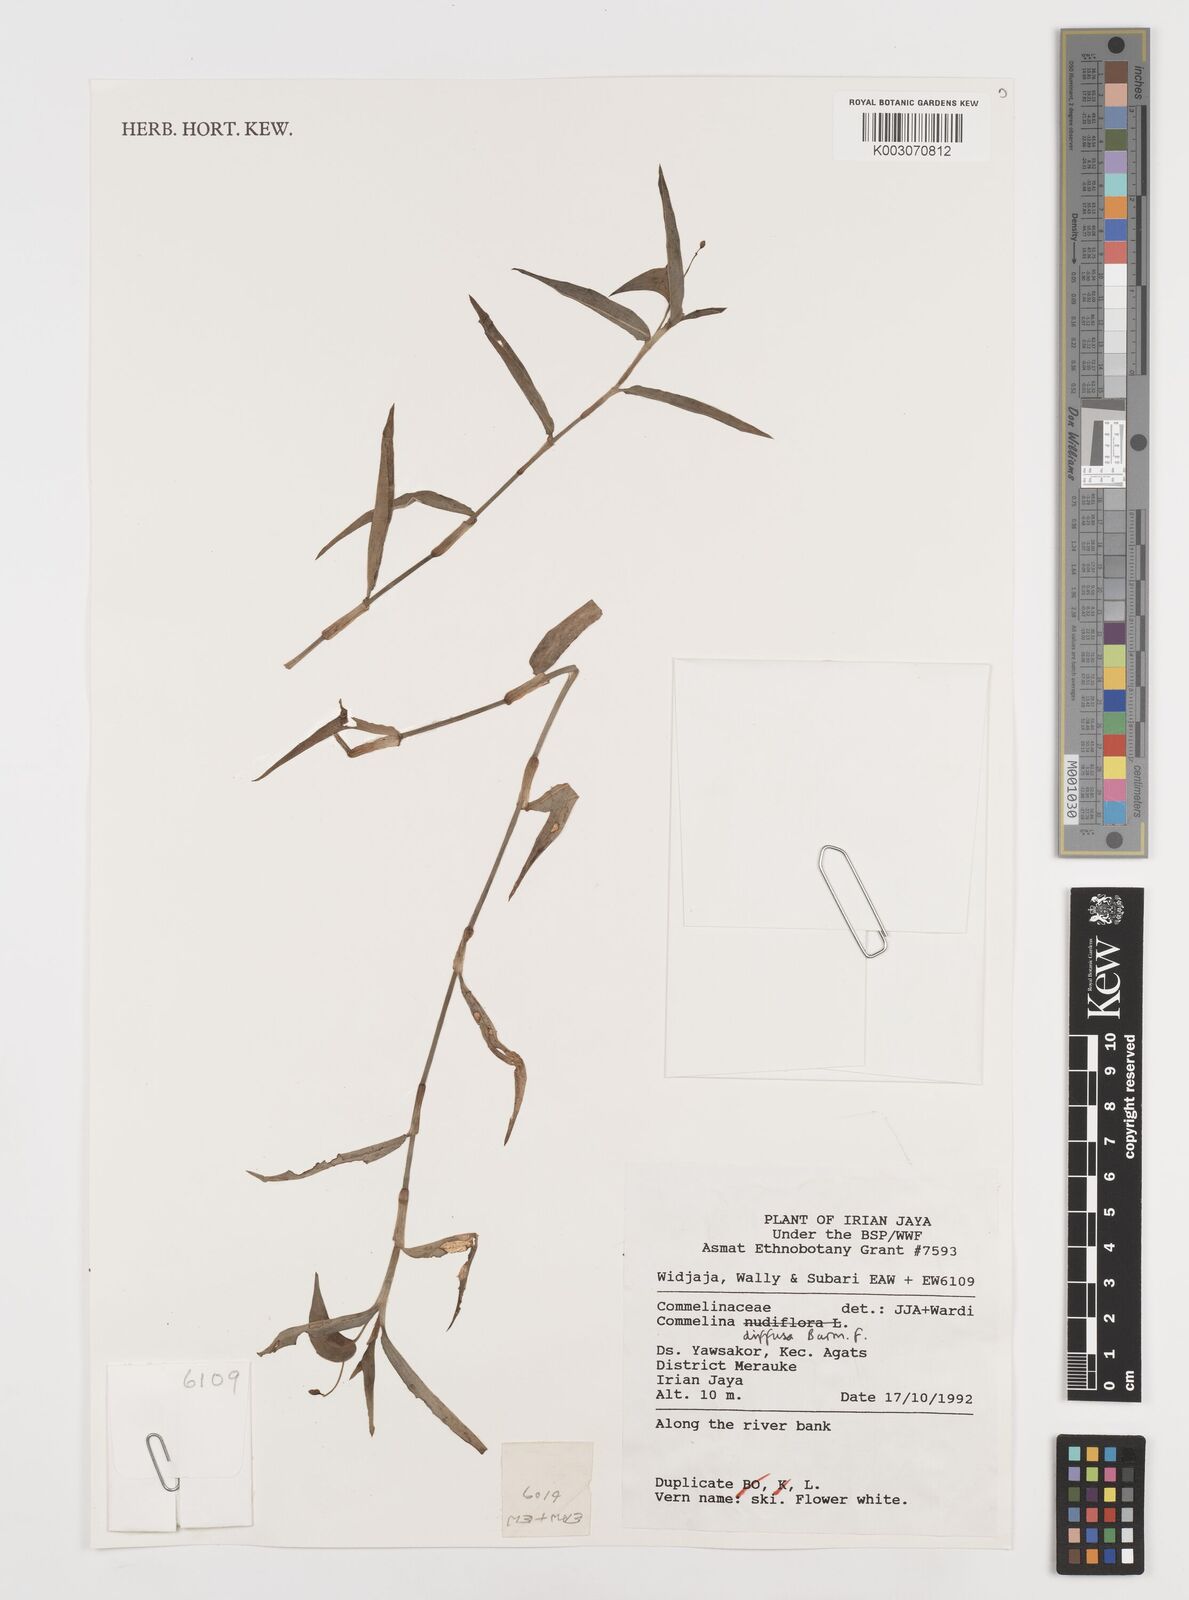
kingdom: Plantae
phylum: Tracheophyta
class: Liliopsida
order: Commelinales
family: Commelinaceae
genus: Commelina
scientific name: Commelina clavata
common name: Willow leaved dayflower
